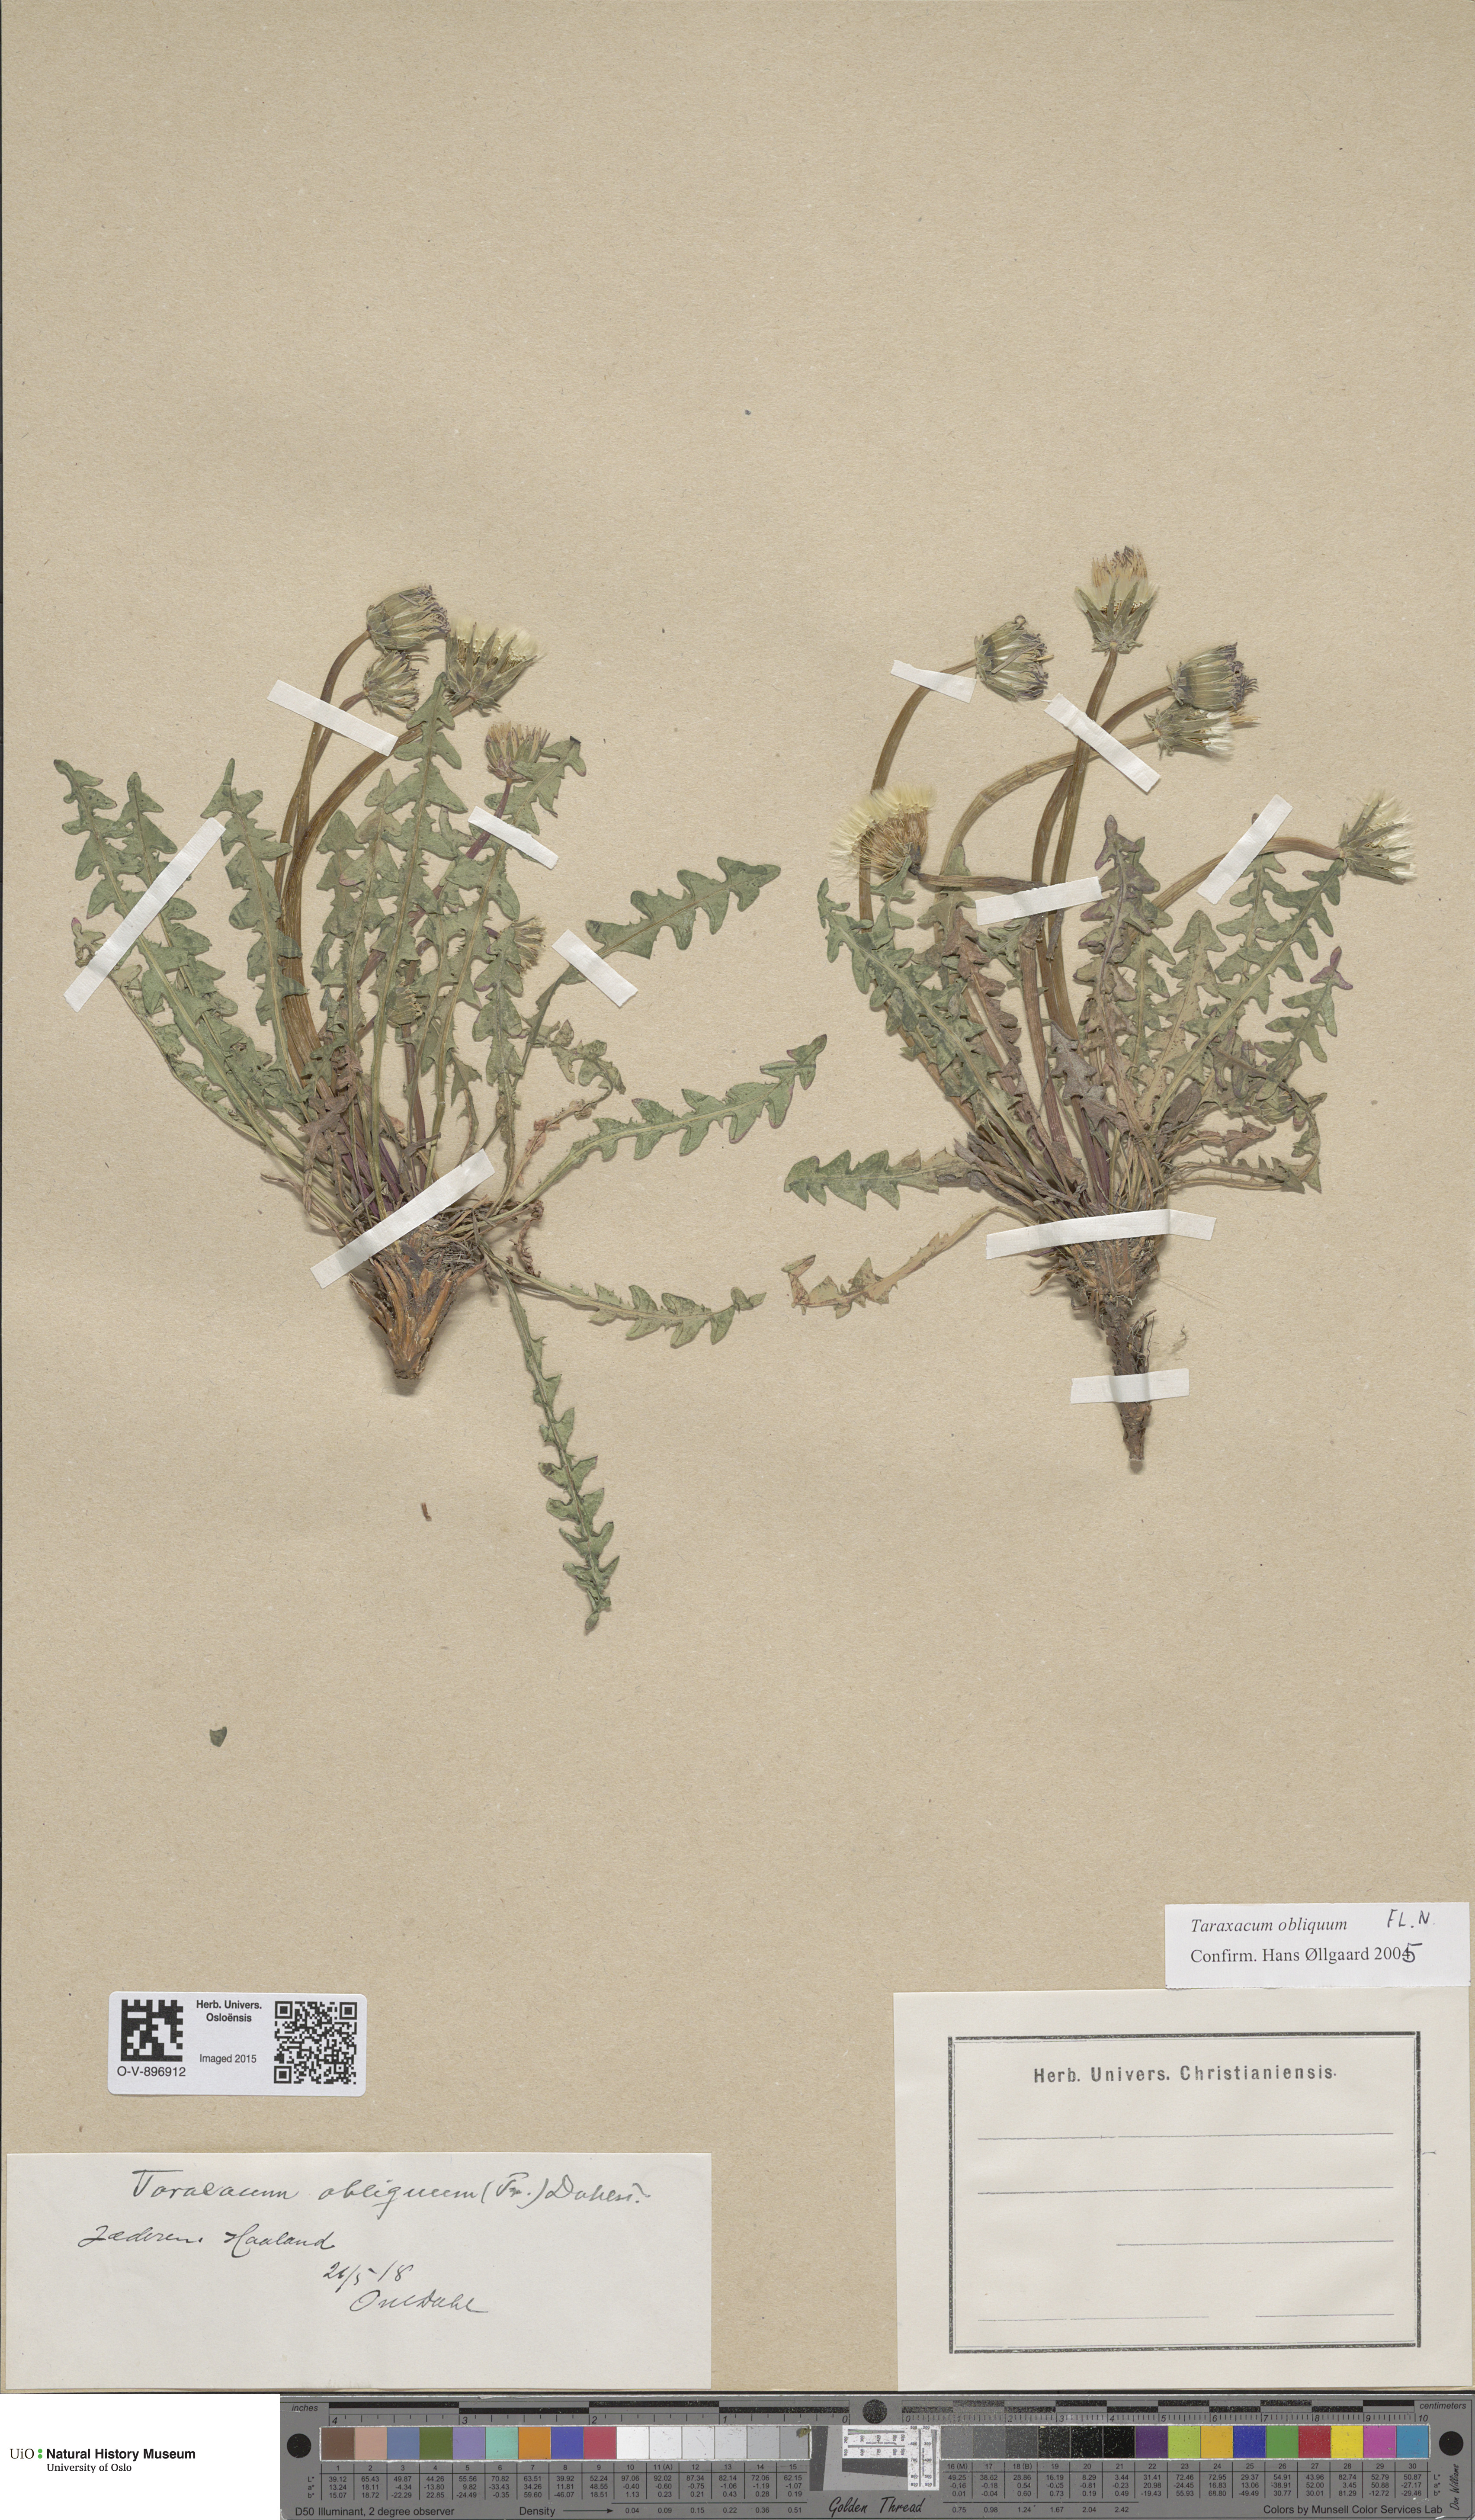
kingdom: Plantae
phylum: Tracheophyta
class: Magnoliopsida
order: Asterales
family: Asteraceae
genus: Taraxacum
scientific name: Taraxacum obliquum
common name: Many-lobed dandelion
